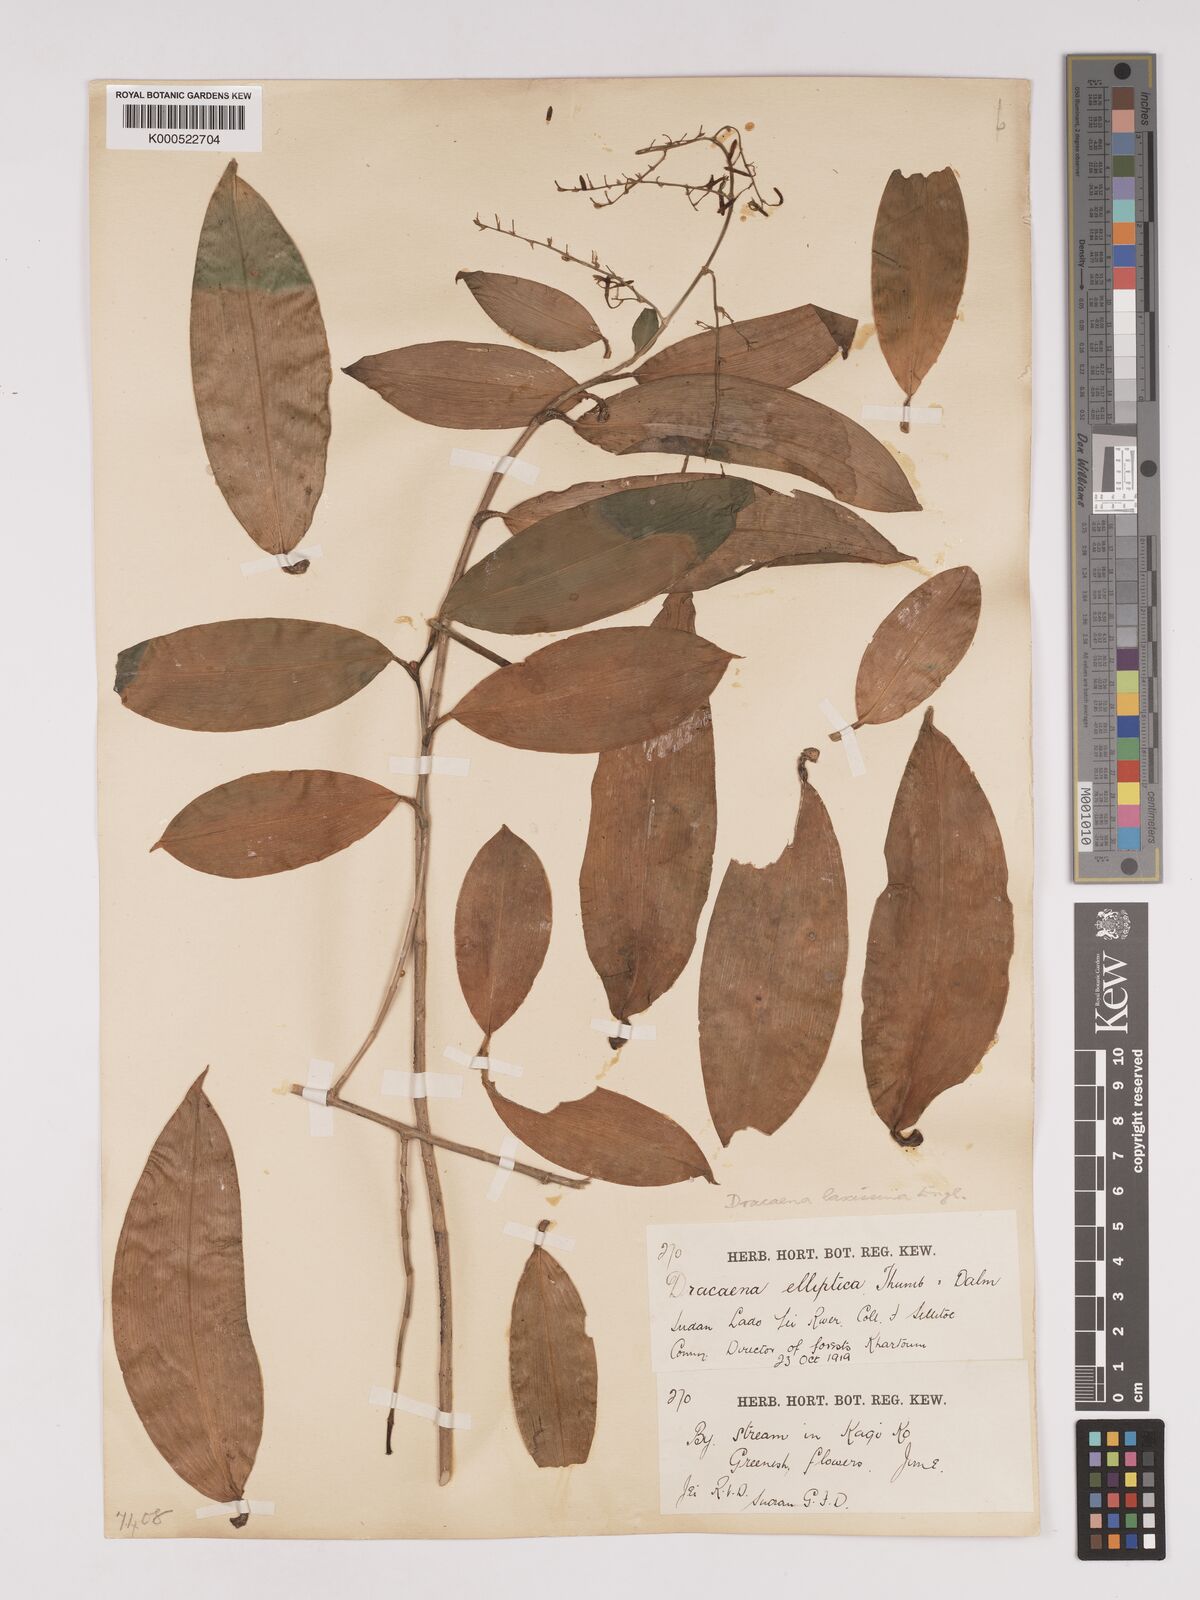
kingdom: Plantae
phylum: Tracheophyta
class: Liliopsida
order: Asparagales
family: Asparagaceae
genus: Dracaena
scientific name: Dracaena laxissima
